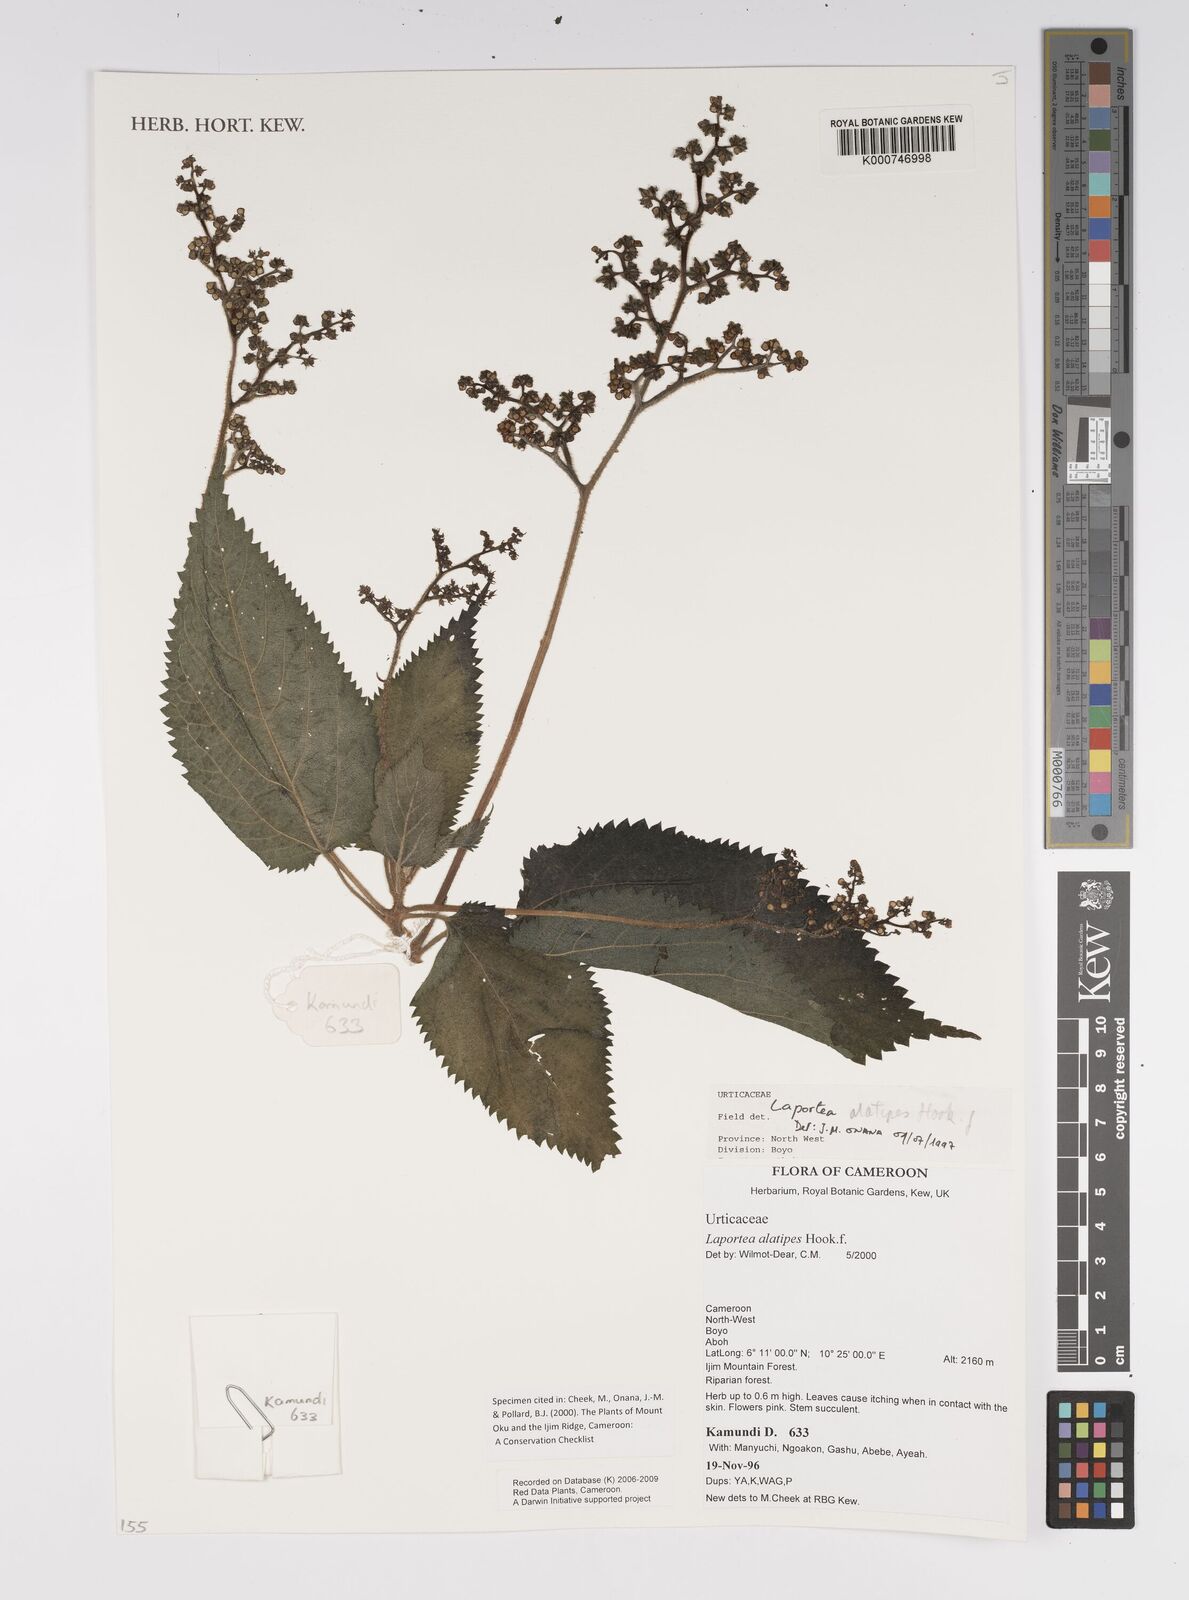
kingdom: Plantae
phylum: Tracheophyta
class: Magnoliopsida
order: Rosales
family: Urticaceae
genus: Laportea
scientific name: Laportea alatipes
